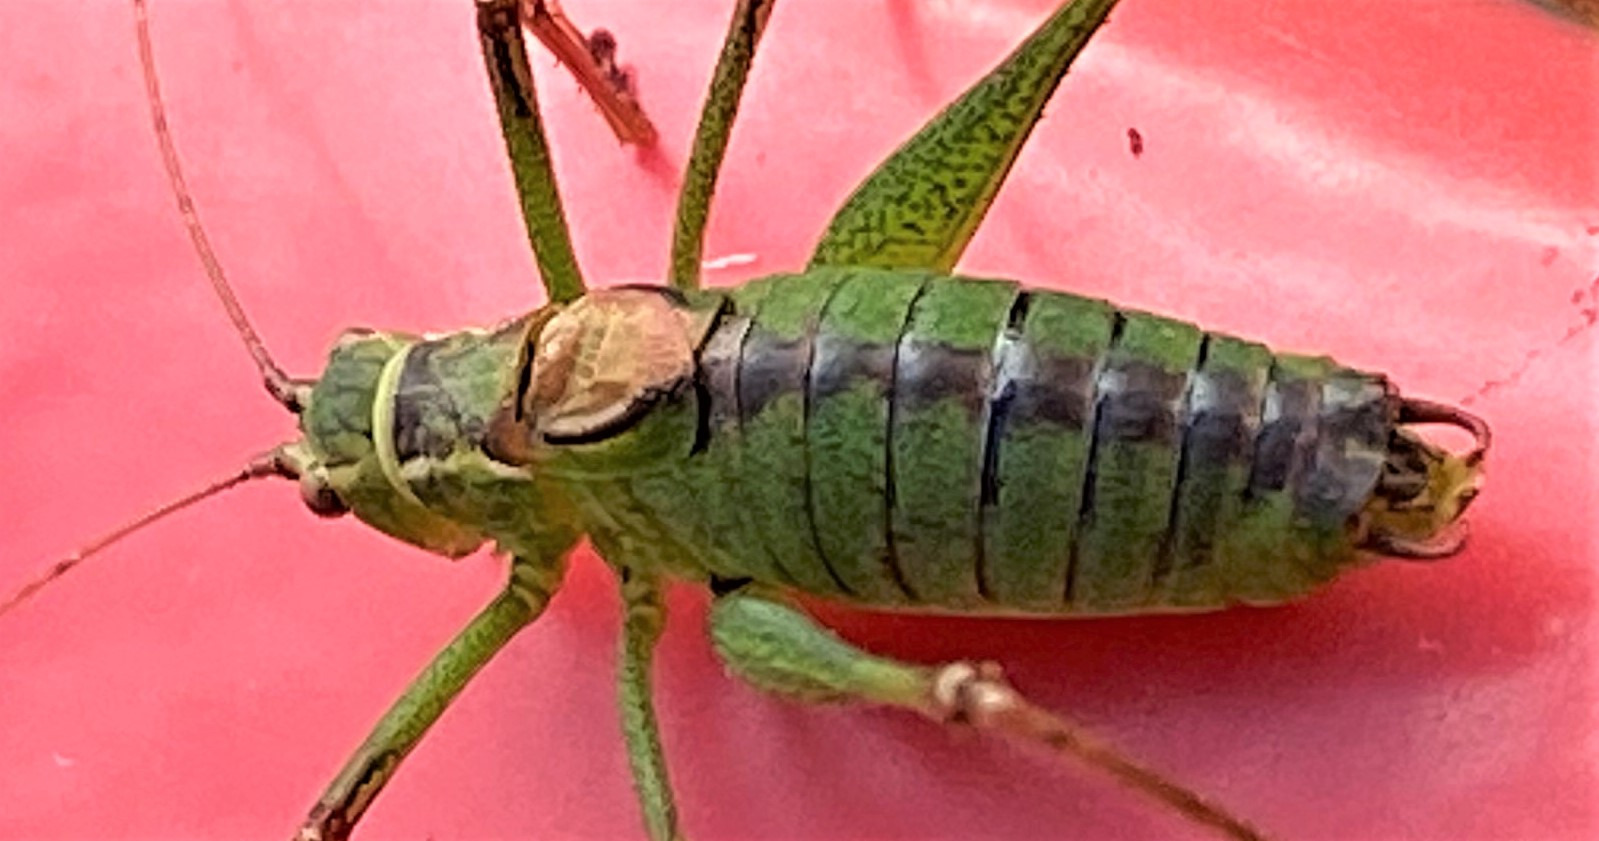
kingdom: Animalia
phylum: Arthropoda
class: Insecta
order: Orthoptera
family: Tettigoniidae
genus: Leptophyes
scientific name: Leptophyes punctatissima
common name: Krumknivgræshoppe
